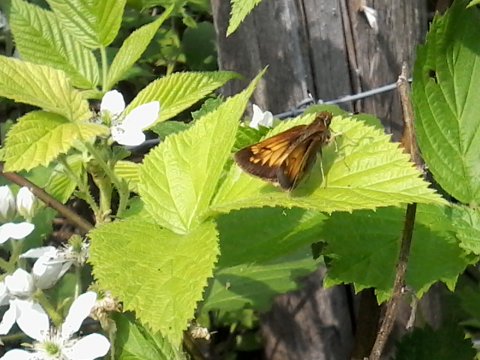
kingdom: Animalia
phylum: Arthropoda
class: Insecta
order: Lepidoptera
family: Hesperiidae
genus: Lon
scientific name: Lon hobomok
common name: Hobomok Skipper
